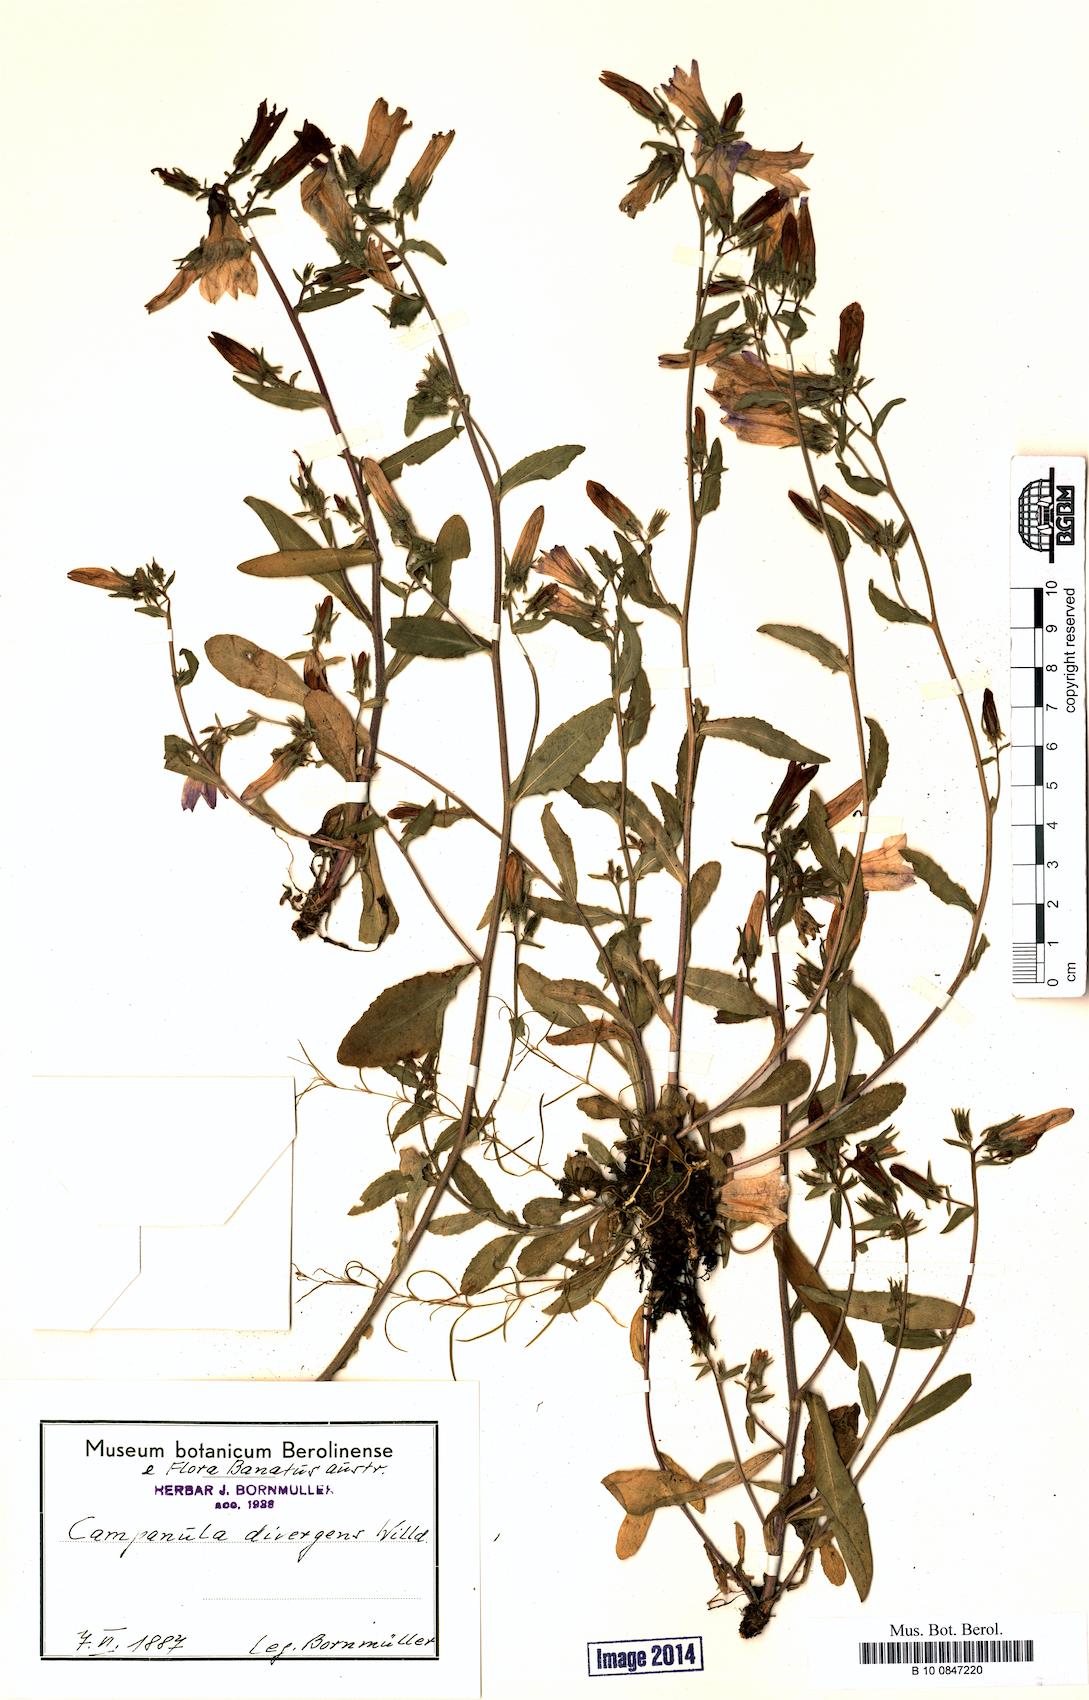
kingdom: Plantae
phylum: Tracheophyta
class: Magnoliopsida
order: Asterales
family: Campanulaceae
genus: Campanula
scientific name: Campanula sibirica
